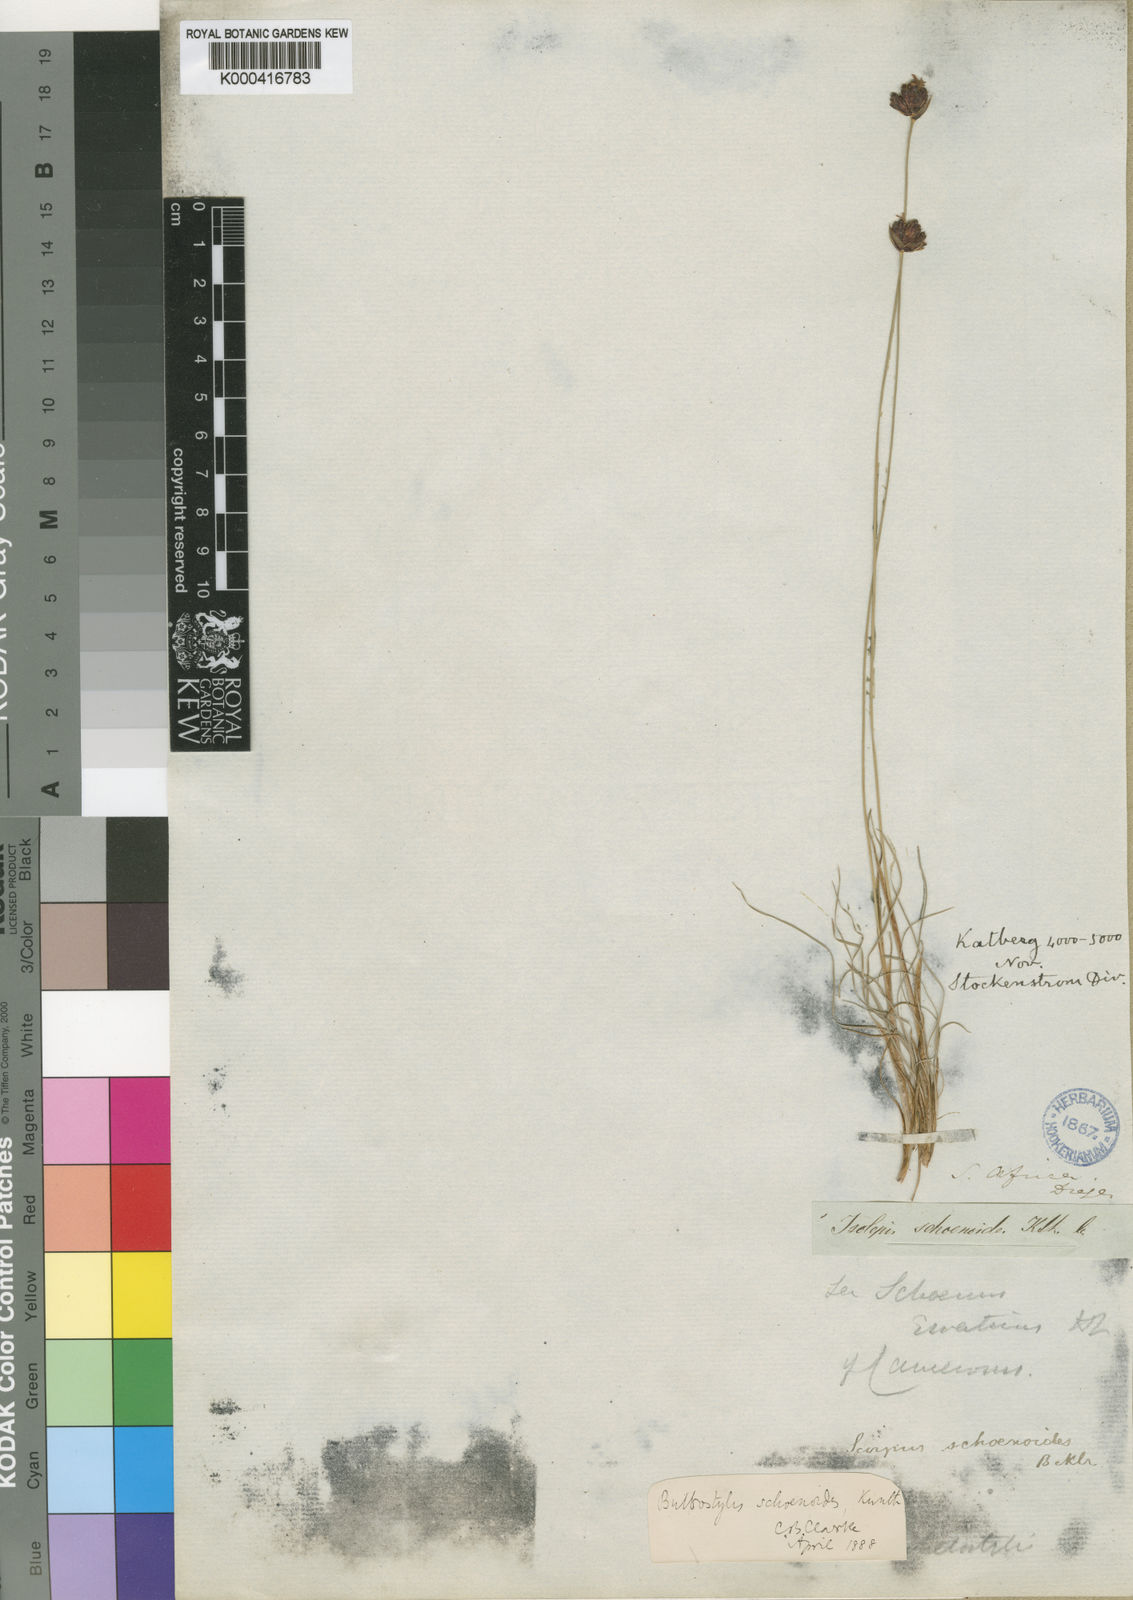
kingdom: Plantae
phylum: Tracheophyta
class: Liliopsida
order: Poales
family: Cyperaceae
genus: Bulbostylis
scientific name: Bulbostylis schoenoides
